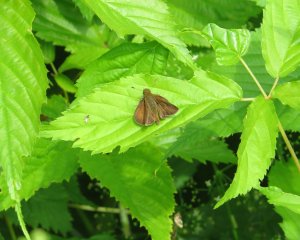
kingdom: Animalia
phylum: Arthropoda
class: Insecta
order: Lepidoptera
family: Hesperiidae
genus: Euphyes
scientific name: Euphyes vestris
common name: Dun Skipper
